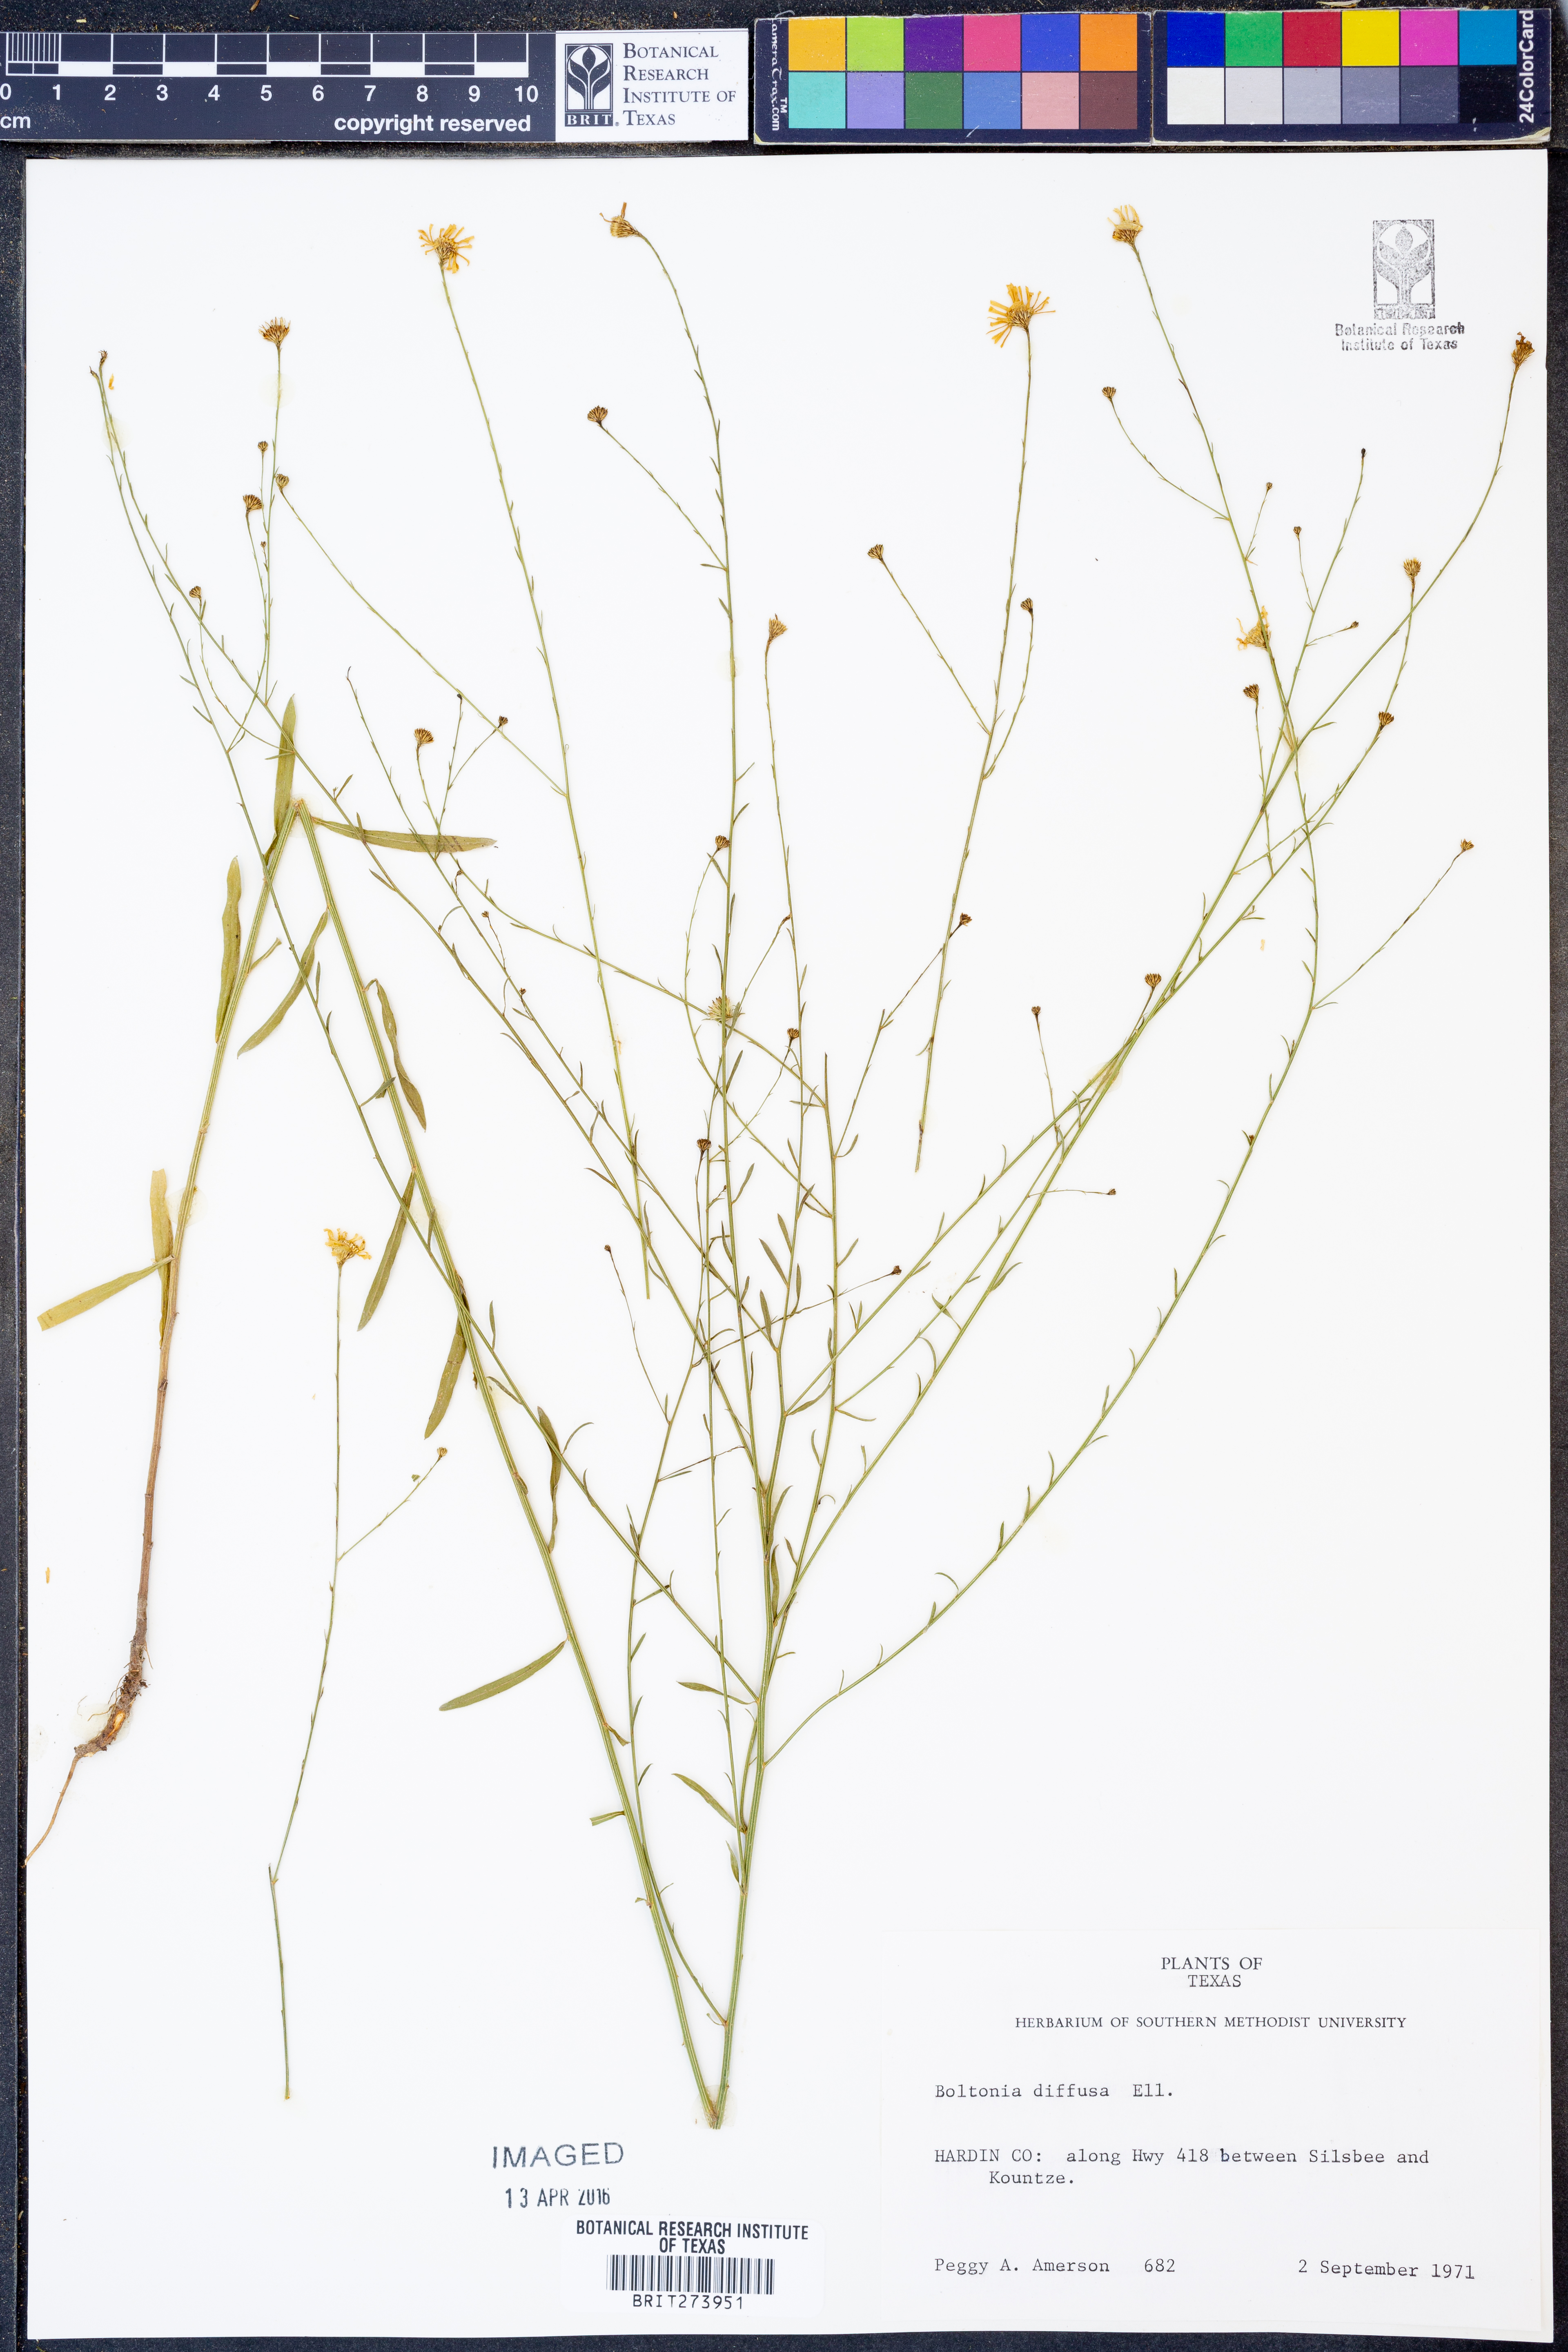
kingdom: Plantae
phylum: Tracheophyta
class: Magnoliopsida
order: Asterales
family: Asteraceae
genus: Boltonia
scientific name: Boltonia diffusa
